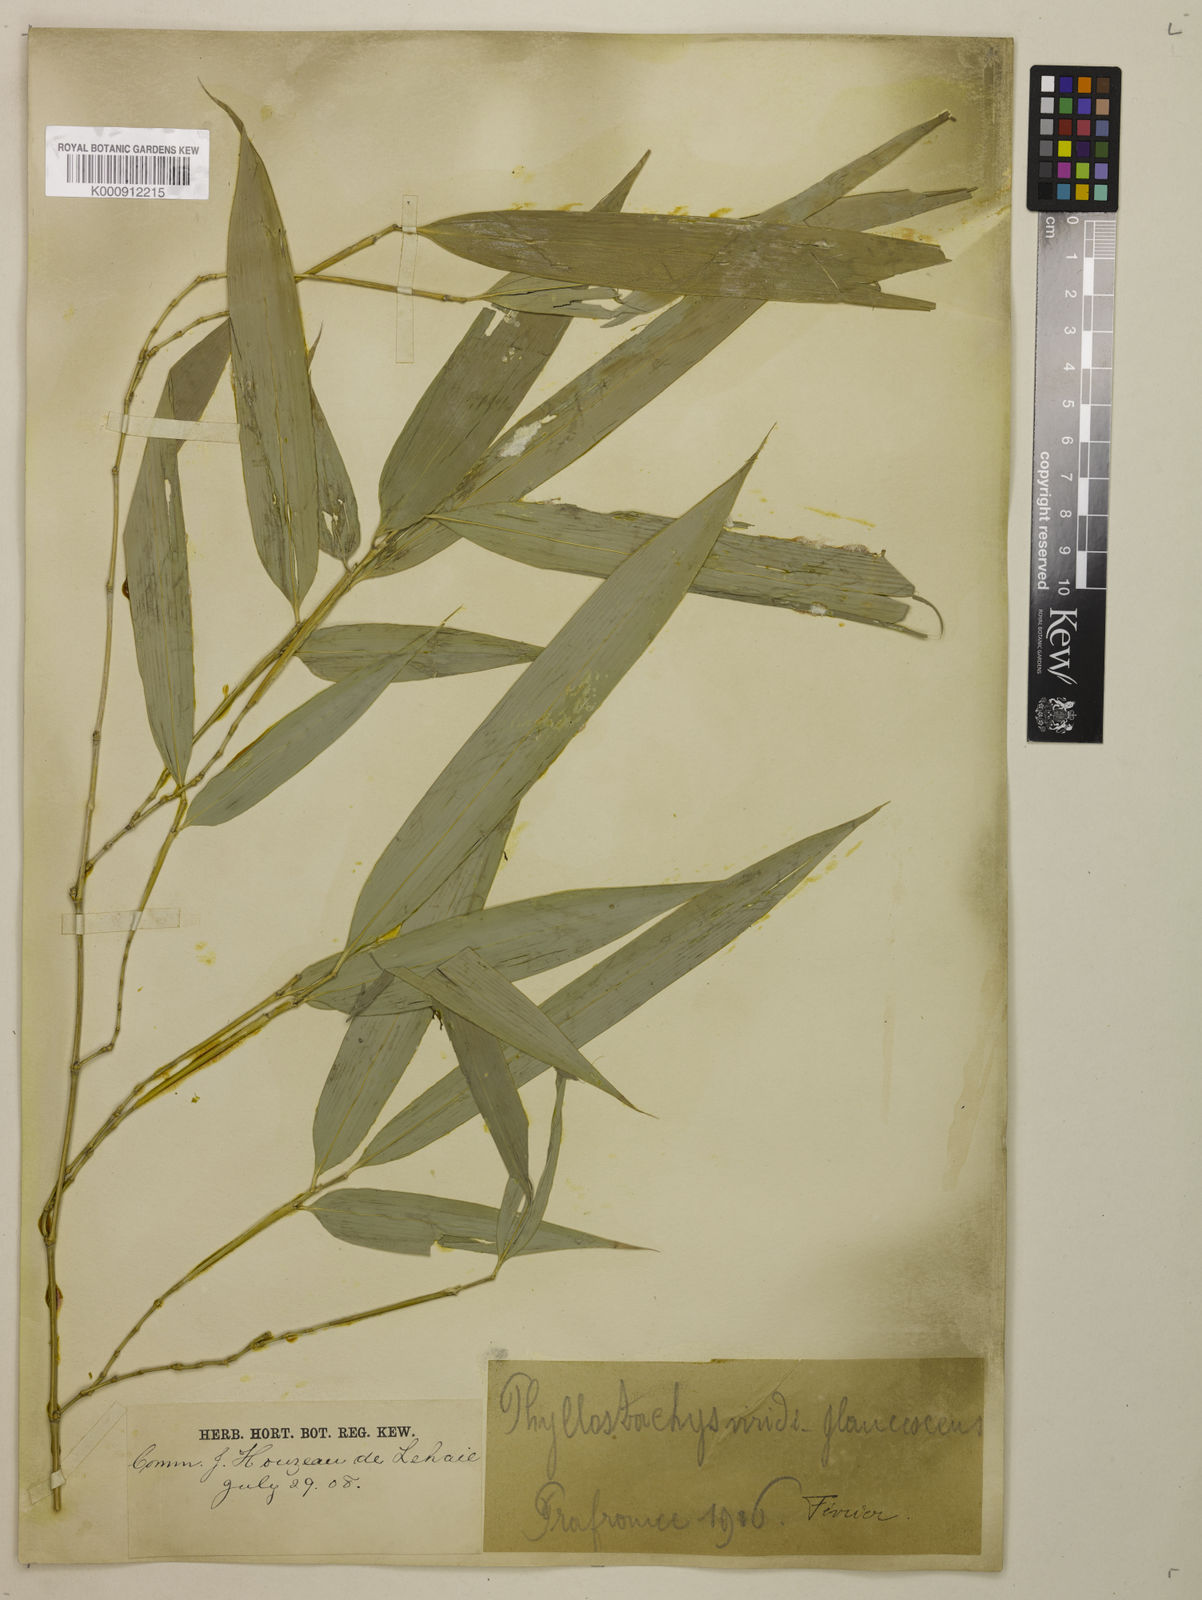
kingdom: Plantae
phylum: Tracheophyta
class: Liliopsida
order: Poales
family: Poaceae
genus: Phyllostachys
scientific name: Phyllostachys
